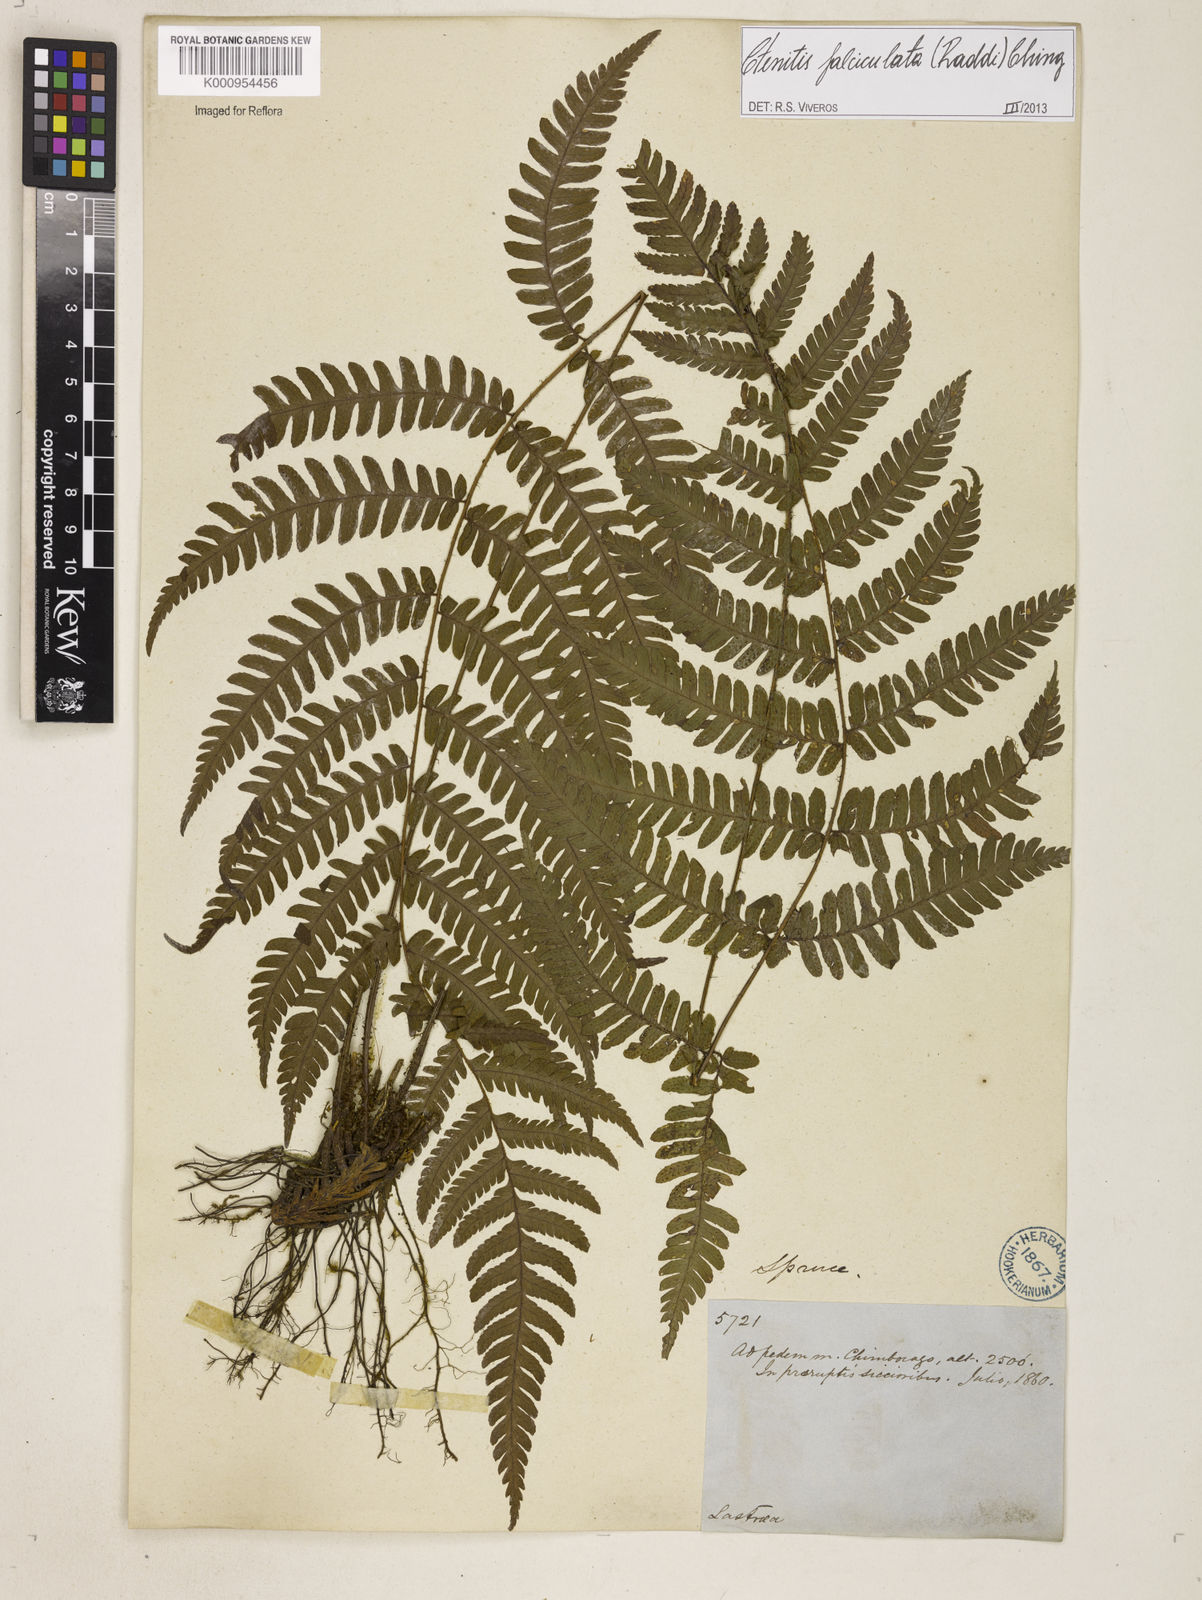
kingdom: Plantae
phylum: Tracheophyta
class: Polypodiopsida
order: Polypodiales
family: Dryopteridaceae
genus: Ctenitis
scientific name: Ctenitis falciculata
